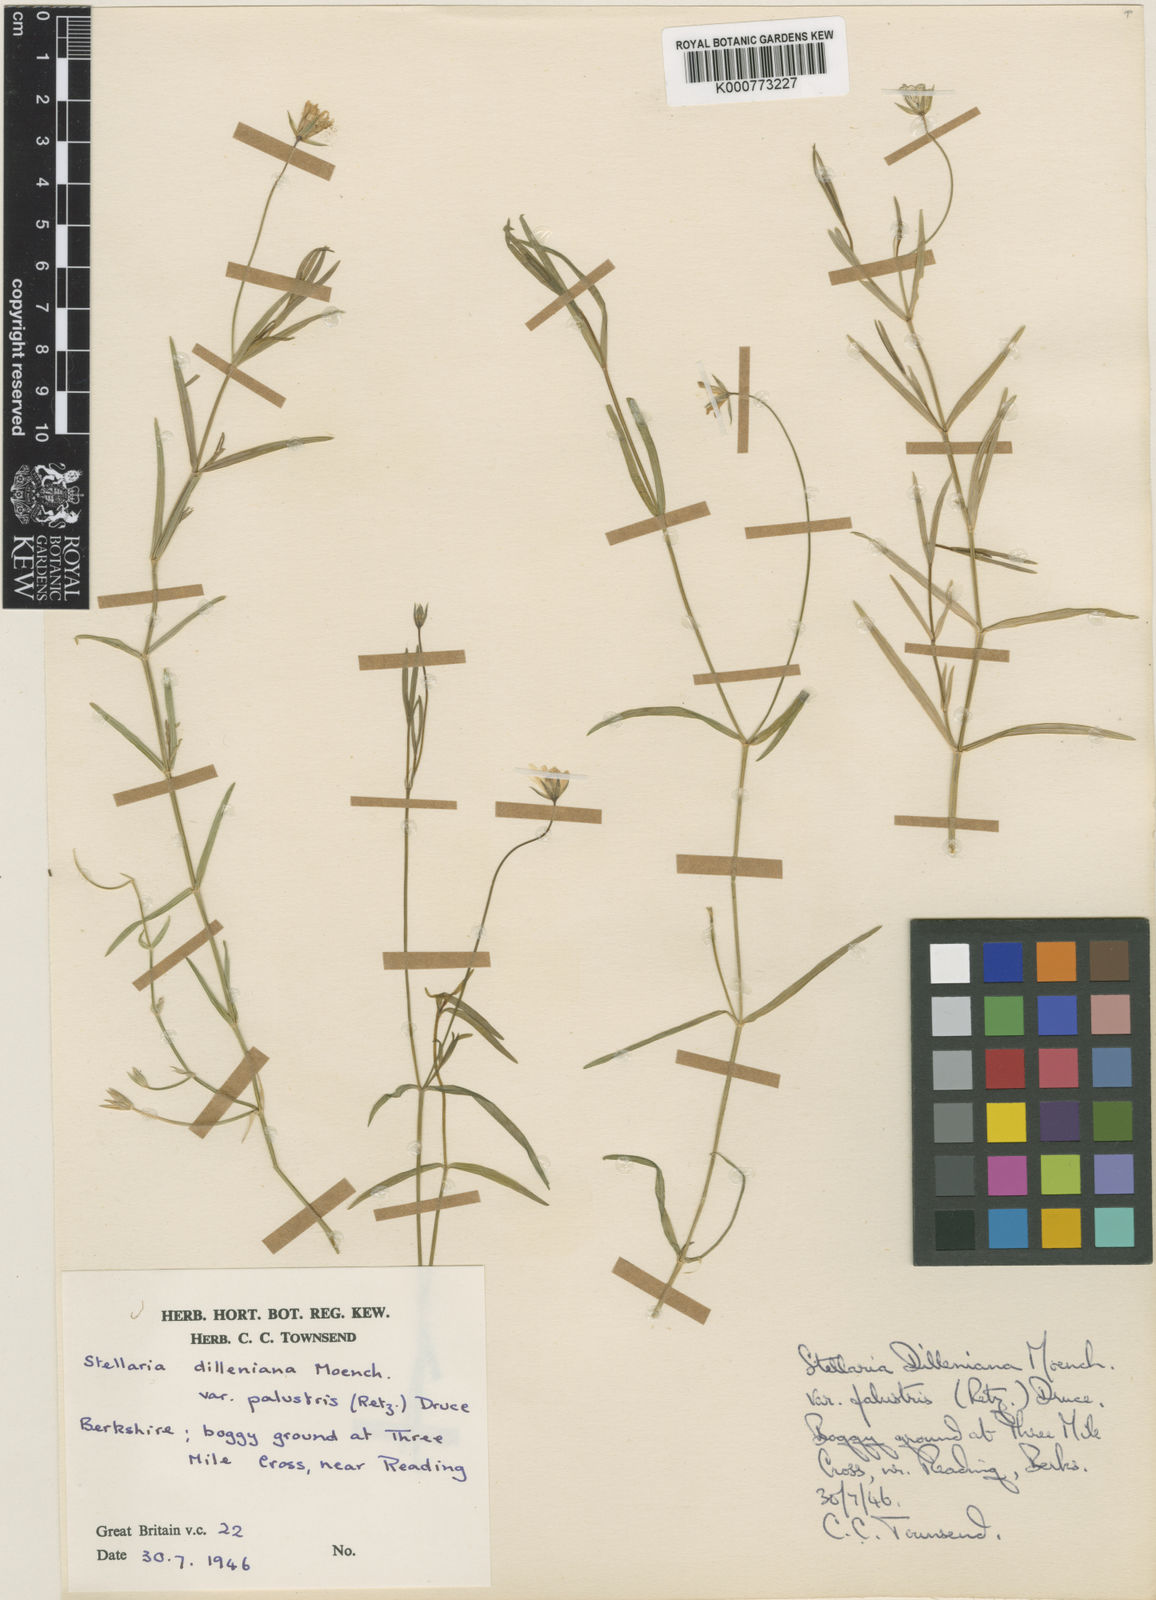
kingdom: Plantae
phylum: Tracheophyta
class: Magnoliopsida
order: Caryophyllales
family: Caryophyllaceae
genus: Stellaria
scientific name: Stellaria
